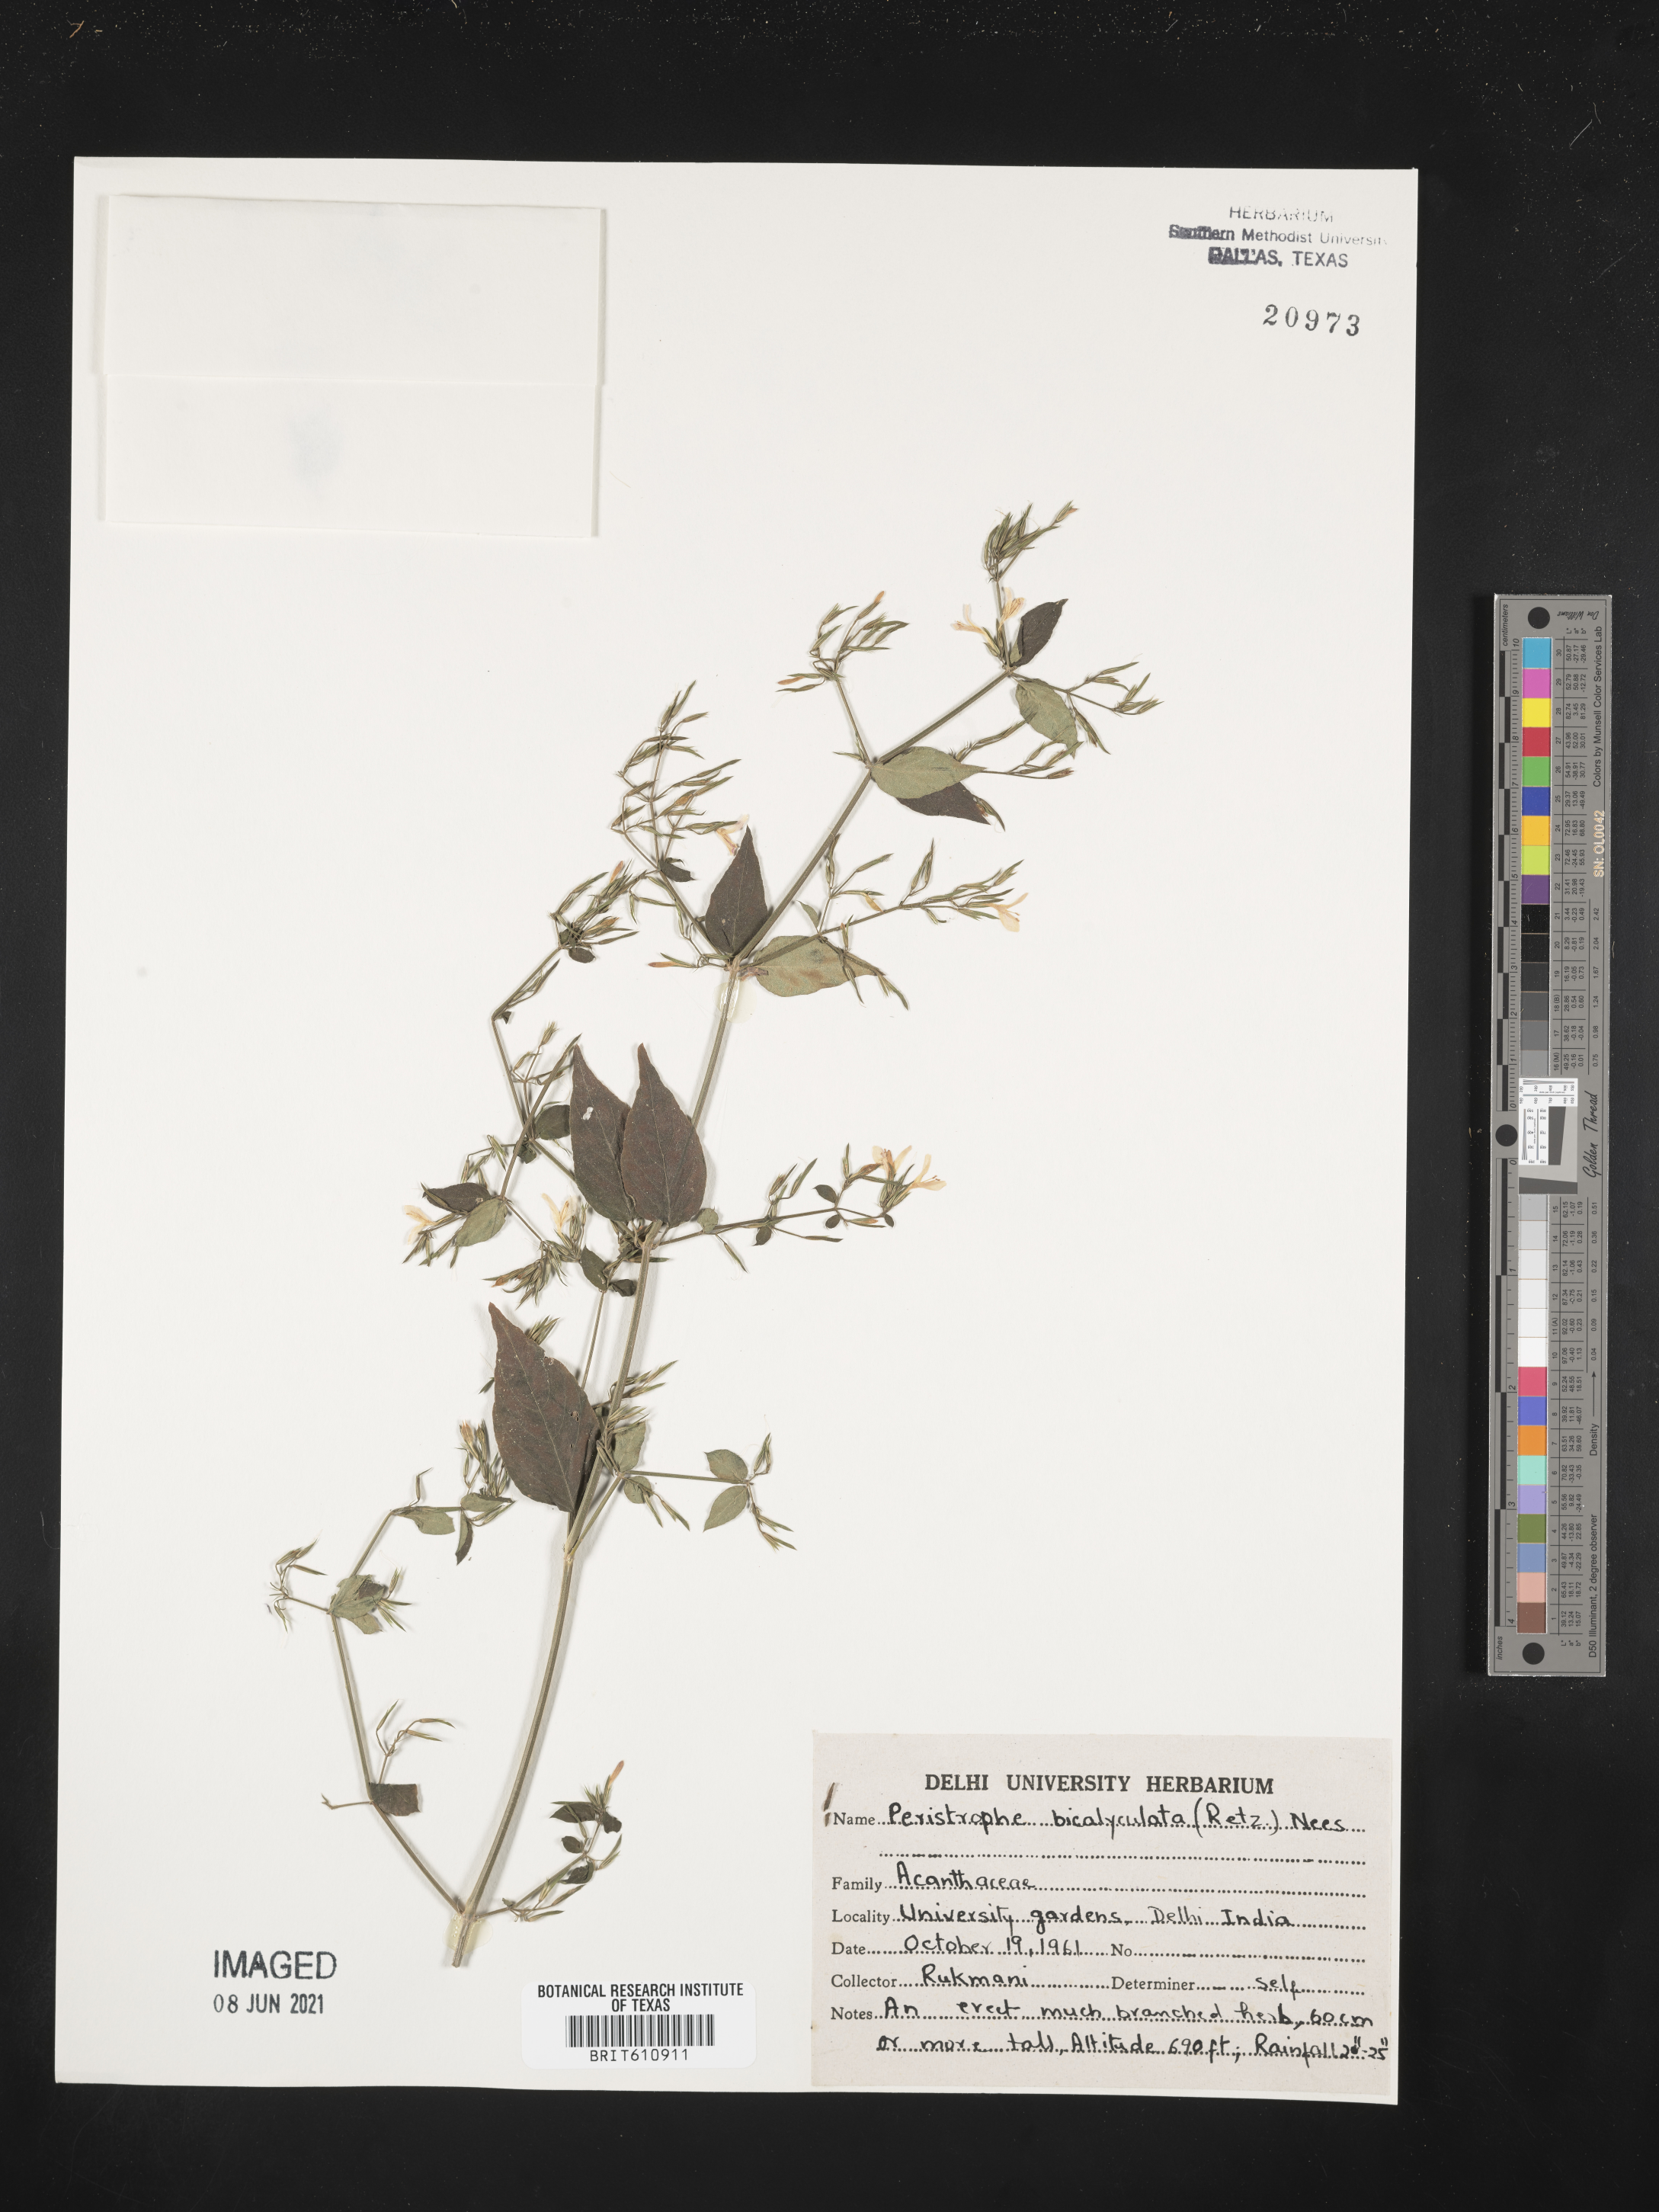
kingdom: Plantae
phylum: Tracheophyta
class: Magnoliopsida
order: Lamiales
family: Acanthaceae
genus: Dicliptera
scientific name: Dicliptera paniculata
